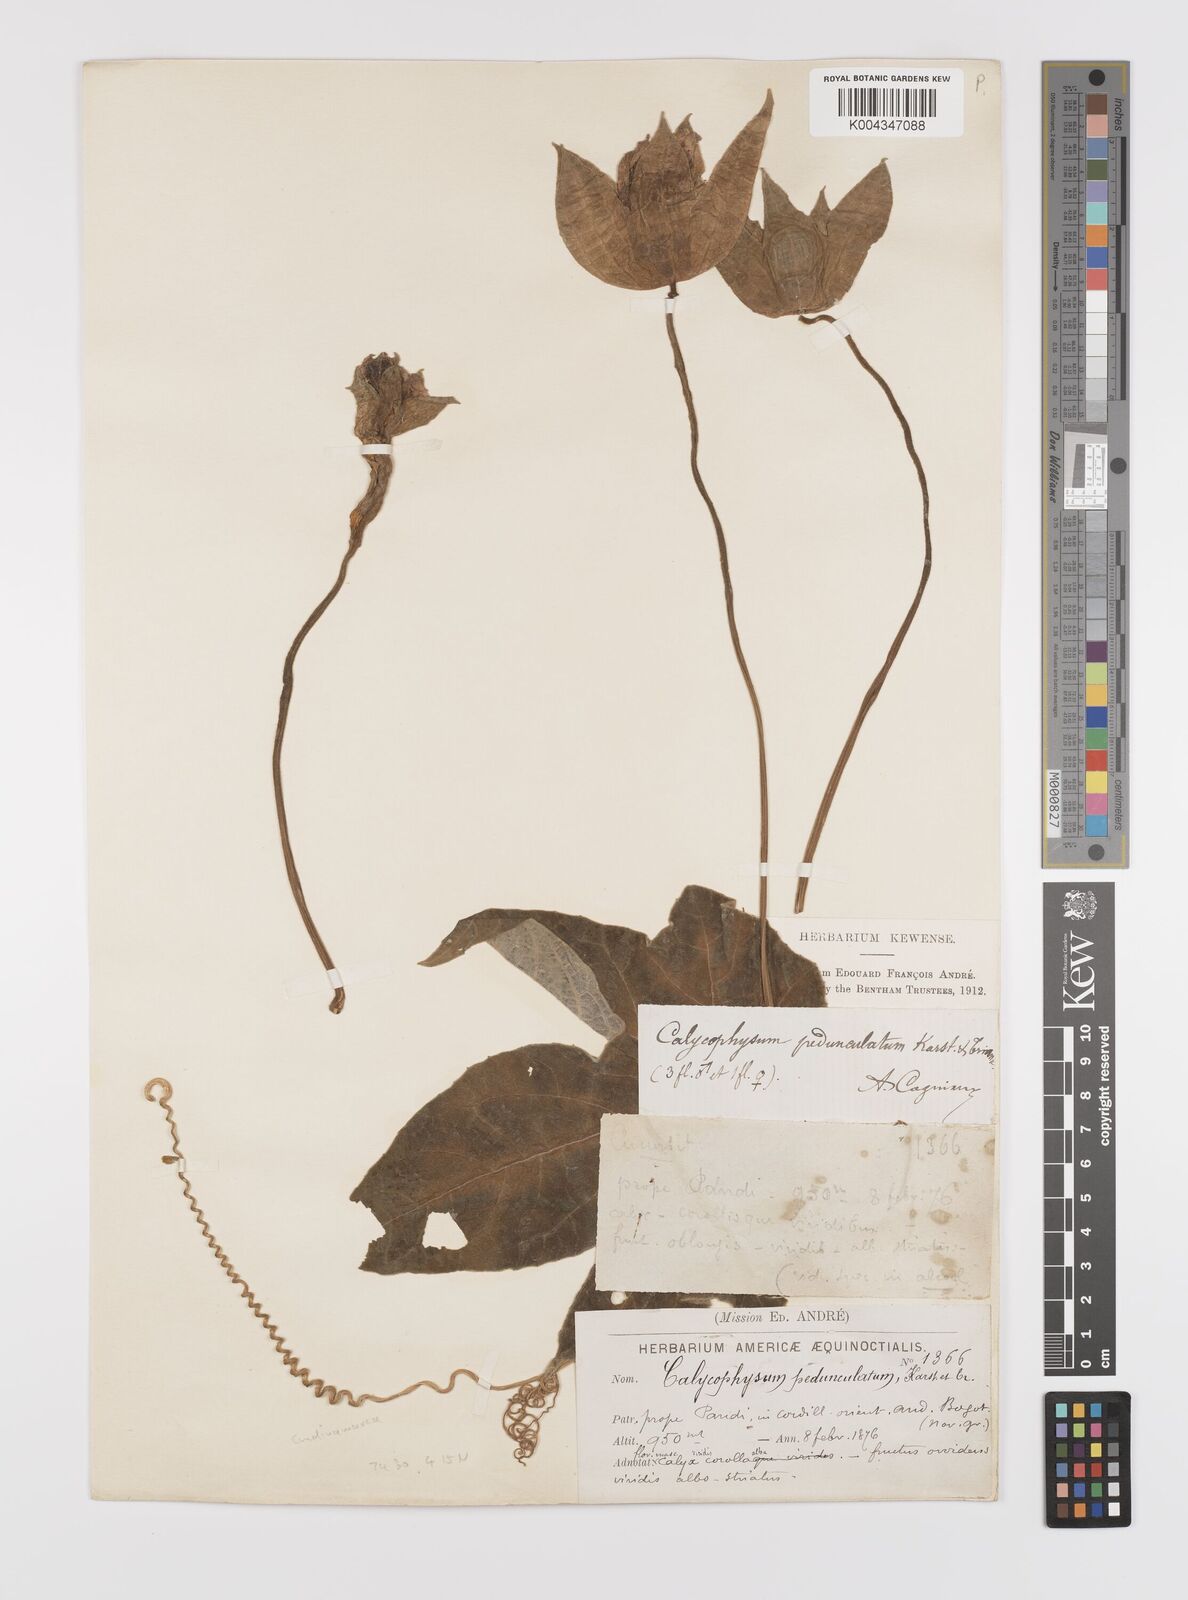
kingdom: Plantae
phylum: Tracheophyta
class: Magnoliopsida
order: Cucurbitales
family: Cucurbitaceae
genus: Calycophysum
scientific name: Calycophysum pedunculatum
